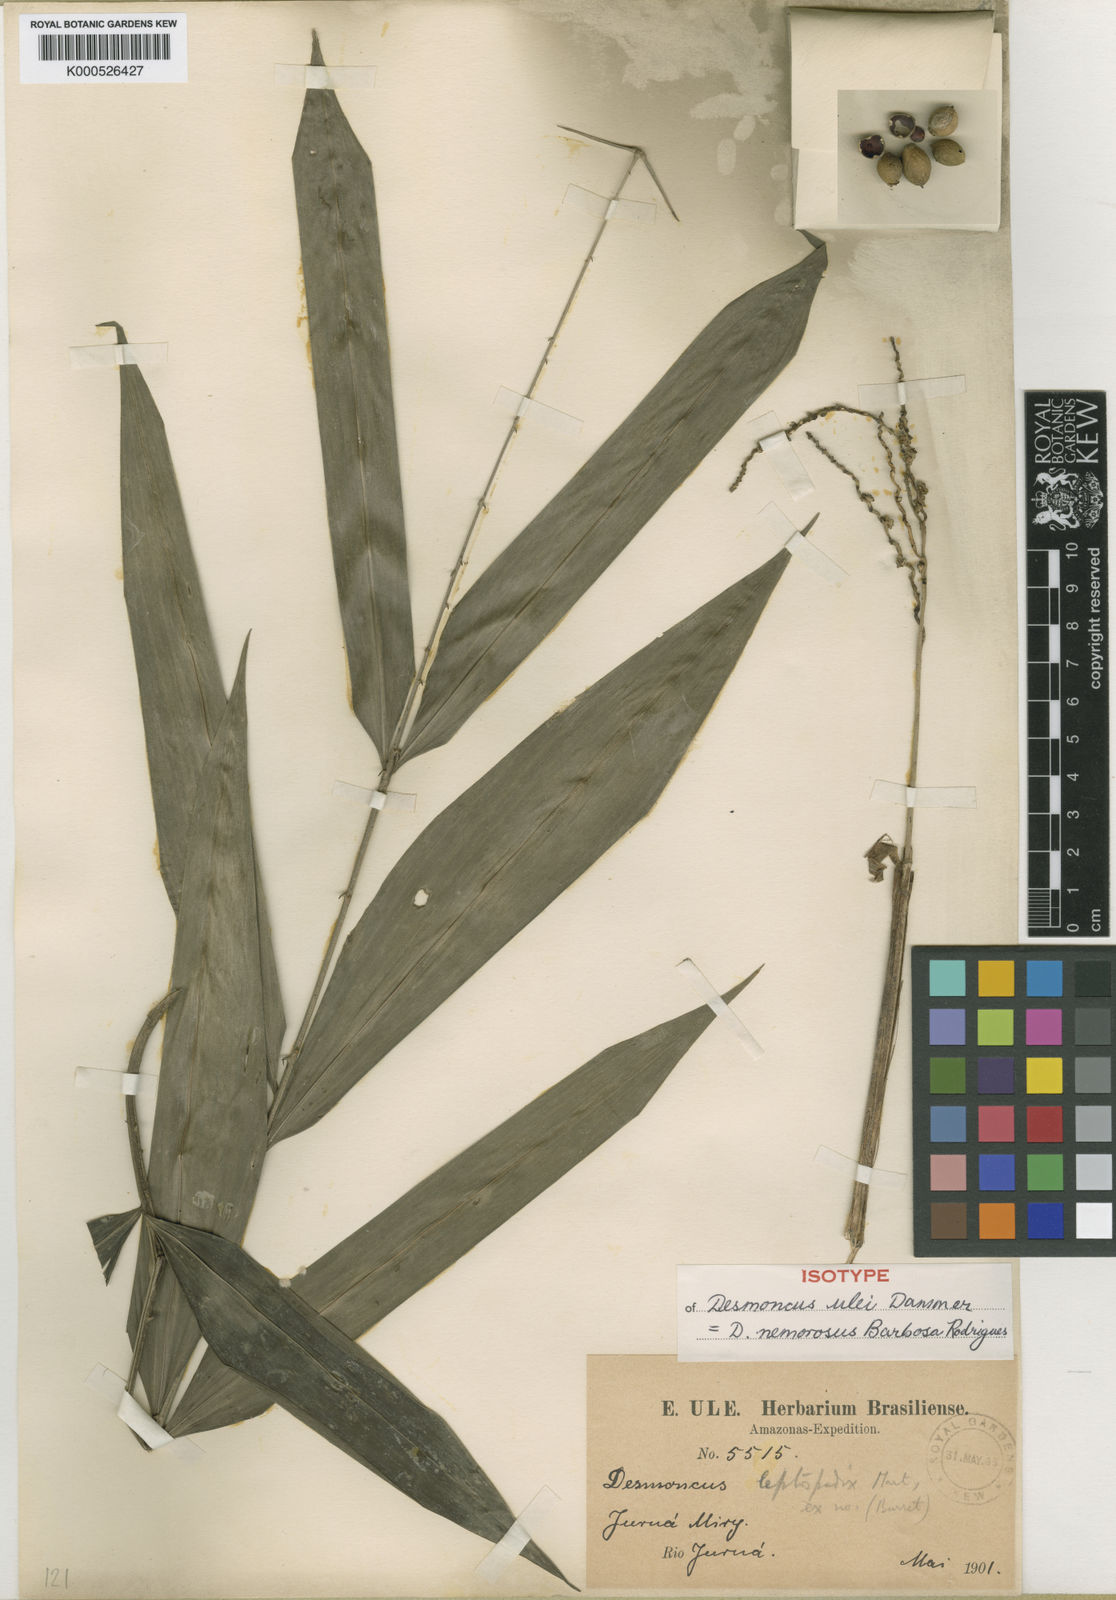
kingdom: Plantae
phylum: Tracheophyta
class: Liliopsida
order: Arecales
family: Arecaceae
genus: Desmoncus
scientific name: Desmoncus polyacanthos
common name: Suriname bramble palm
